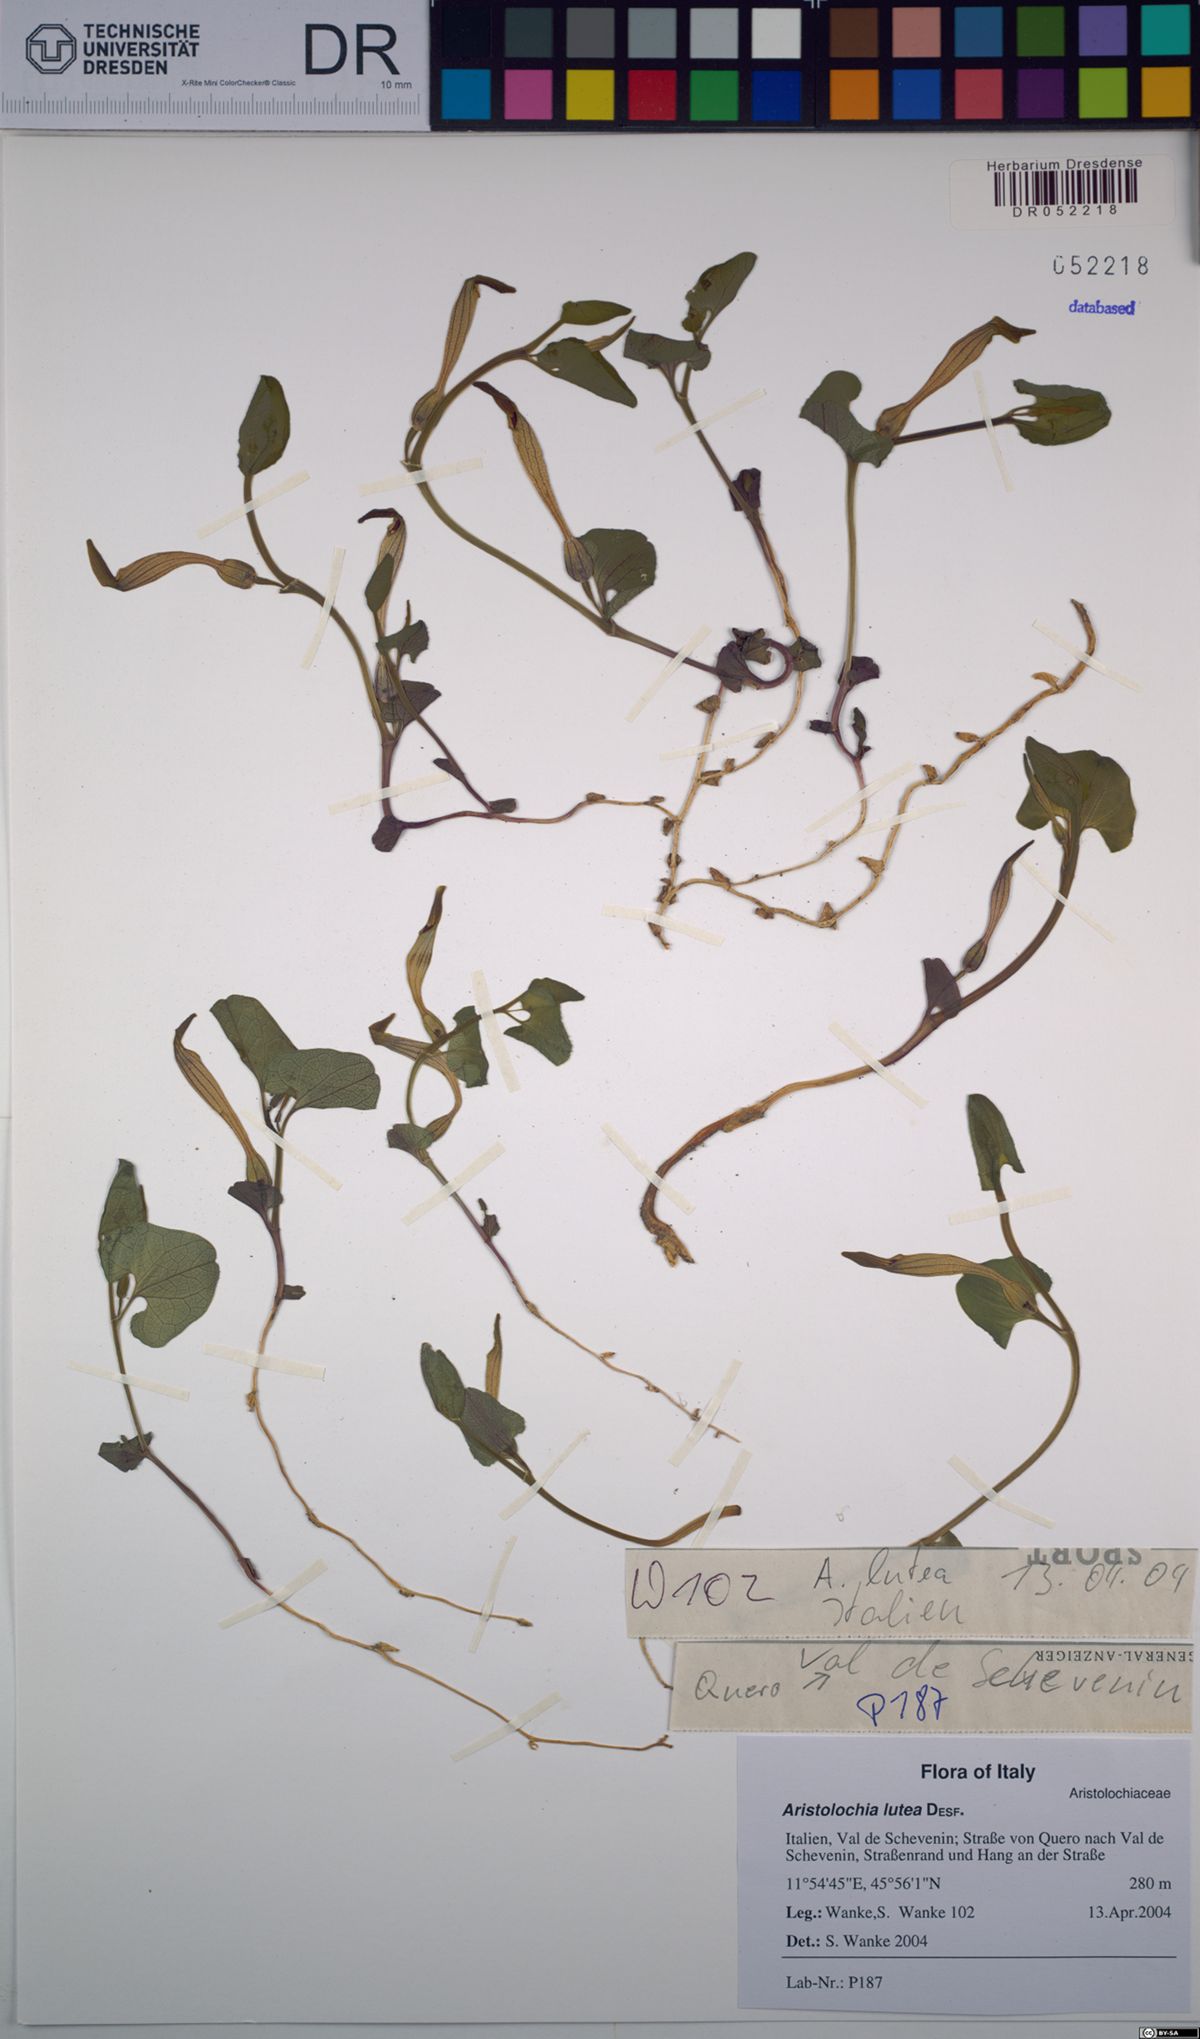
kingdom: Plantae
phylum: Tracheophyta
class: Magnoliopsida
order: Piperales
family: Aristolochiaceae
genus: Aristolochia
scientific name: Aristolochia lutea
